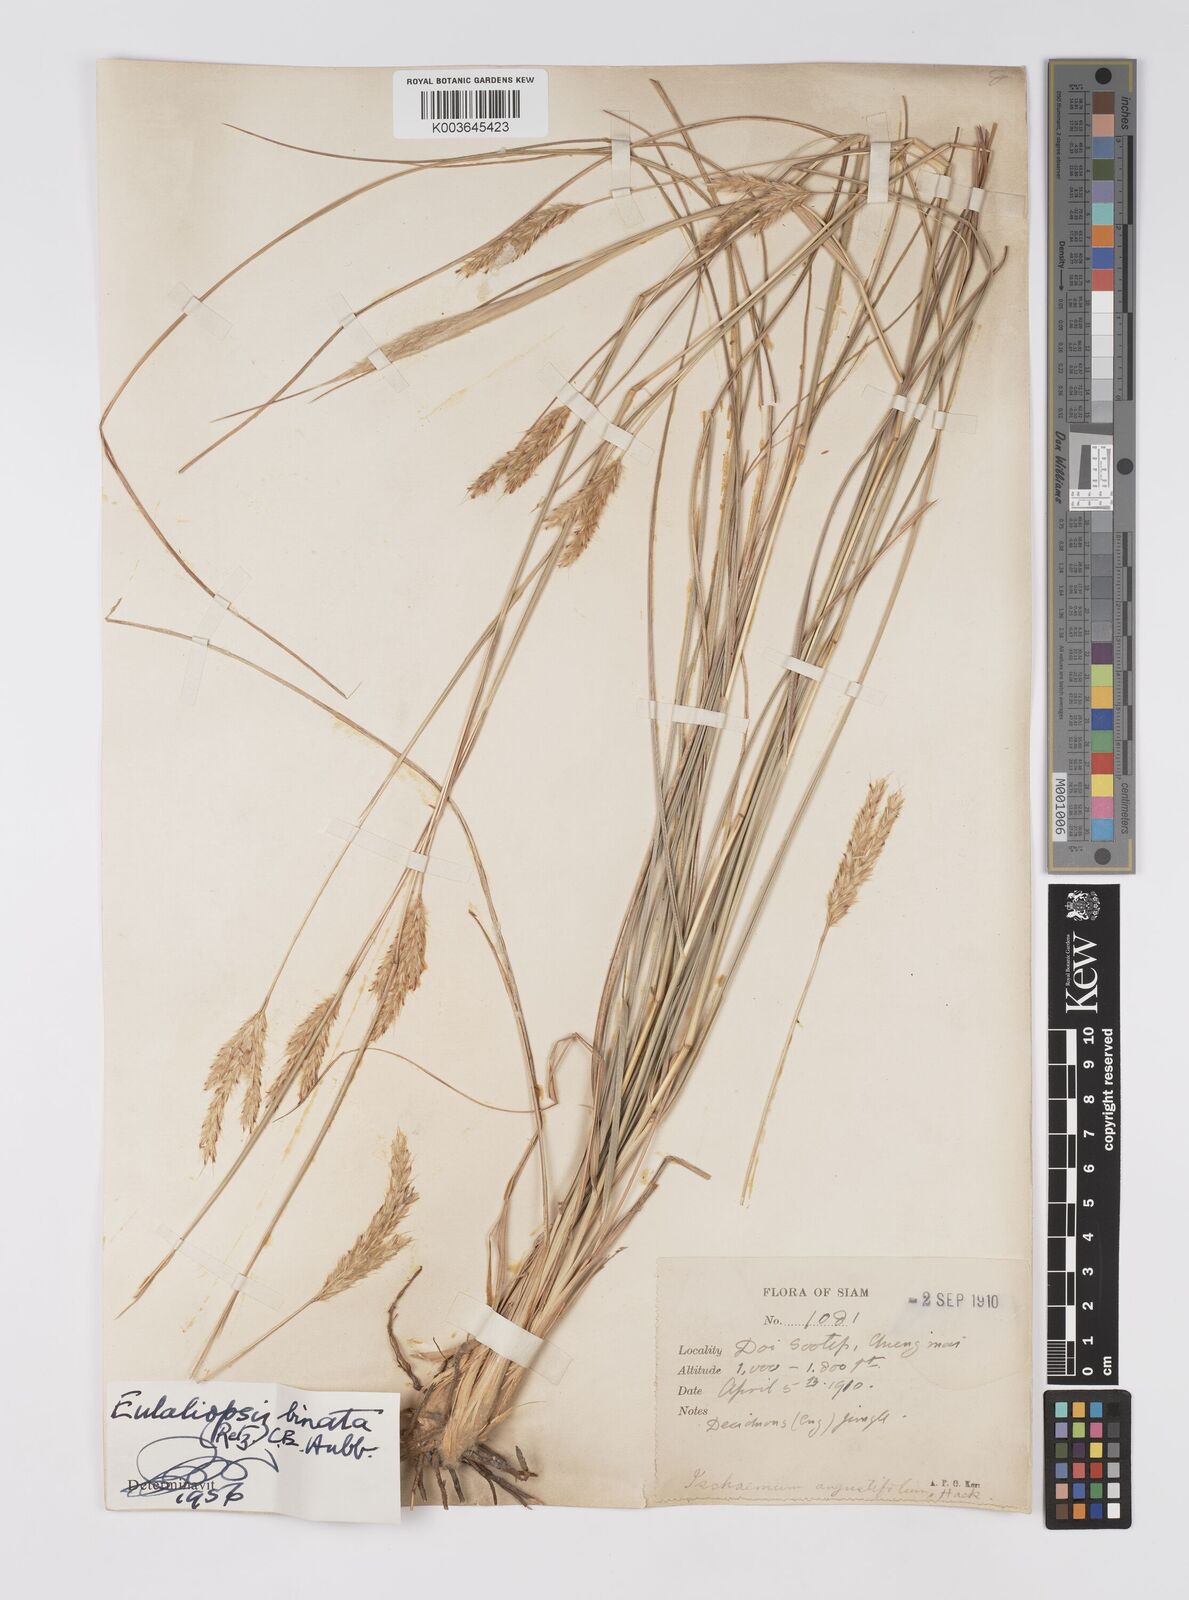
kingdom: Plantae
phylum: Tracheophyta
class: Liliopsida
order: Poales
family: Poaceae
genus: Eulaliopsis
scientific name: Eulaliopsis binata
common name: Baib grass
